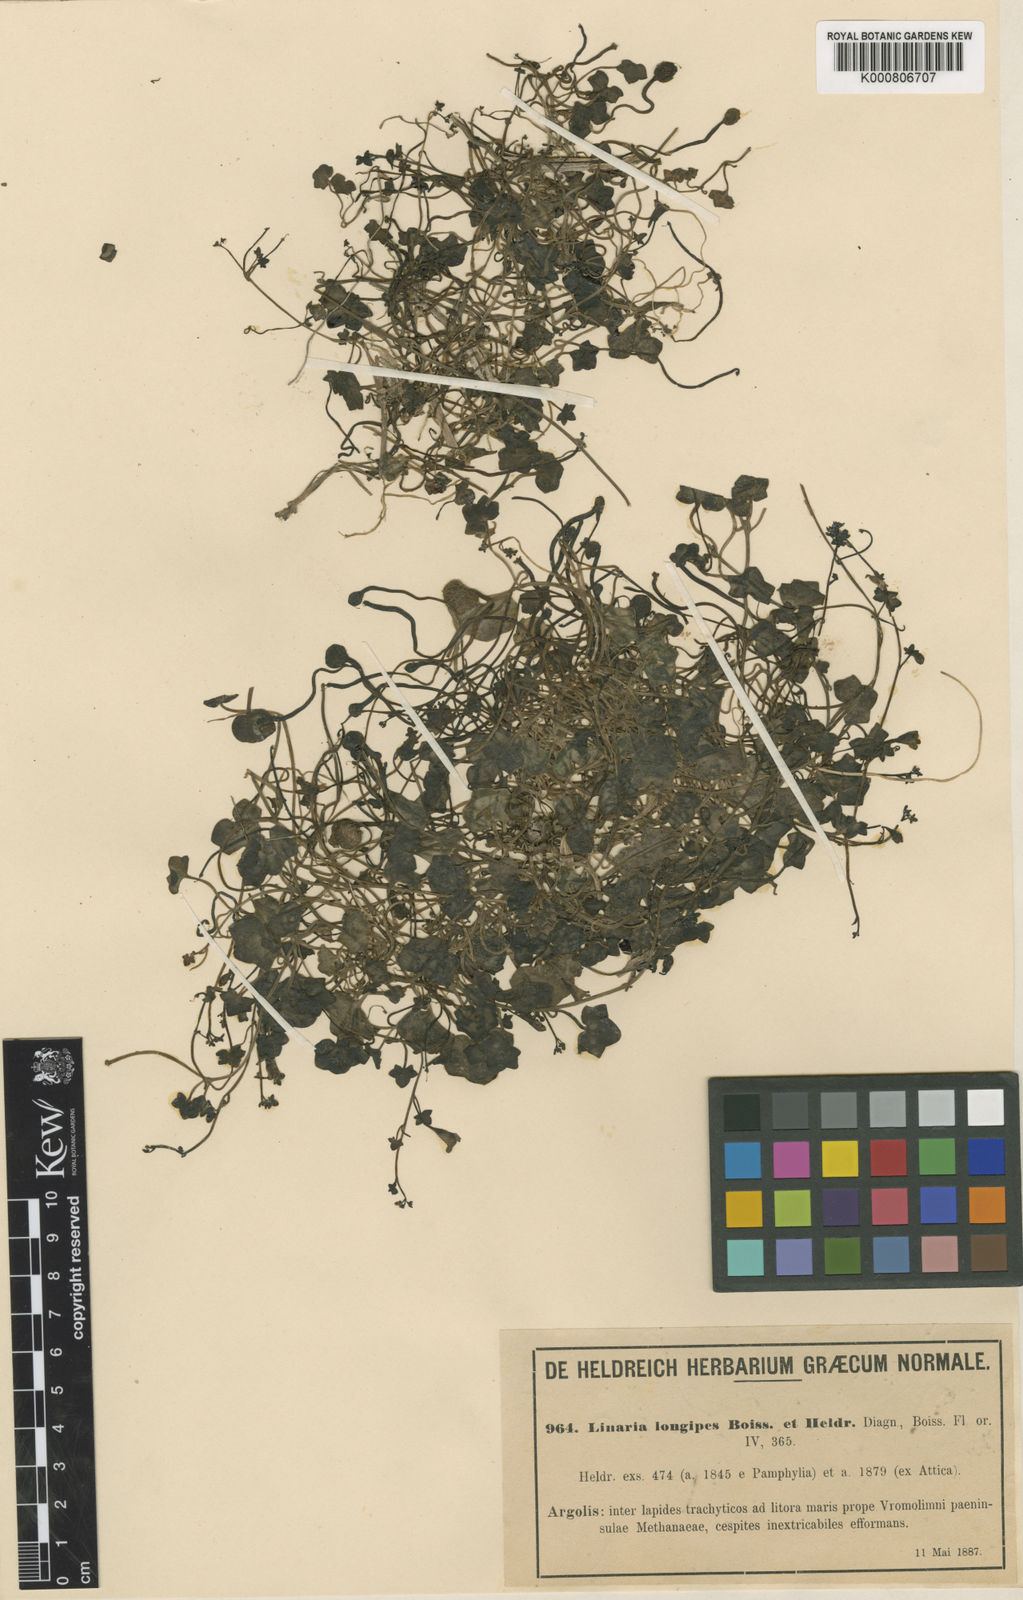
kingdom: Plantae
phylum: Tracheophyta
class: Magnoliopsida
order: Lamiales
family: Plantaginaceae
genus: Cymbalaria
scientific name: Cymbalaria longipes
